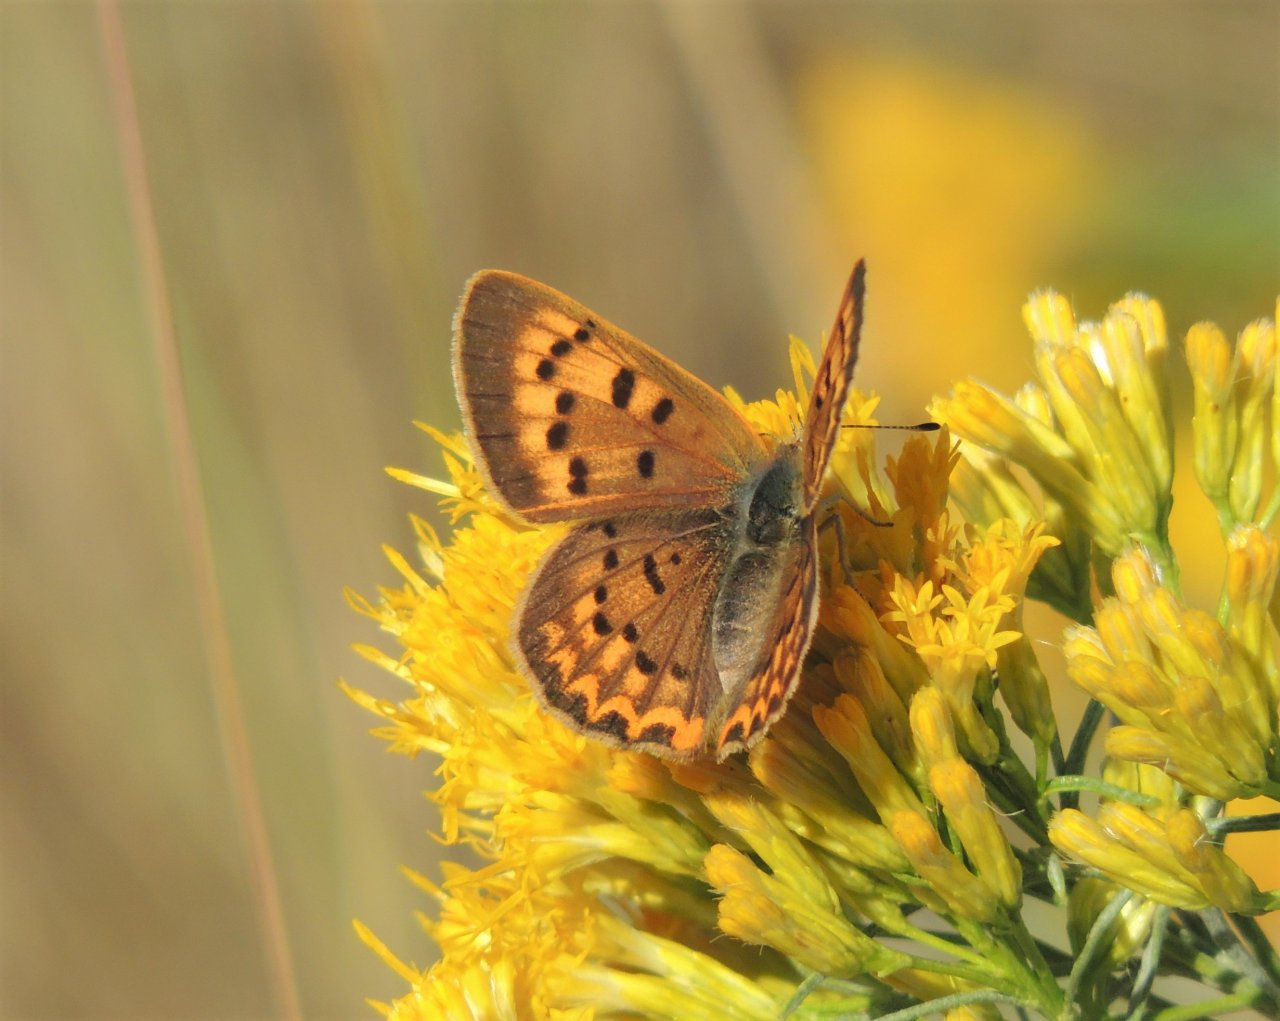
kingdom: Animalia
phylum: Arthropoda
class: Insecta
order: Lepidoptera
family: Sesiidae
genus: Sesia
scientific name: Sesia Lycaena helloides
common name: Purplish Copper
